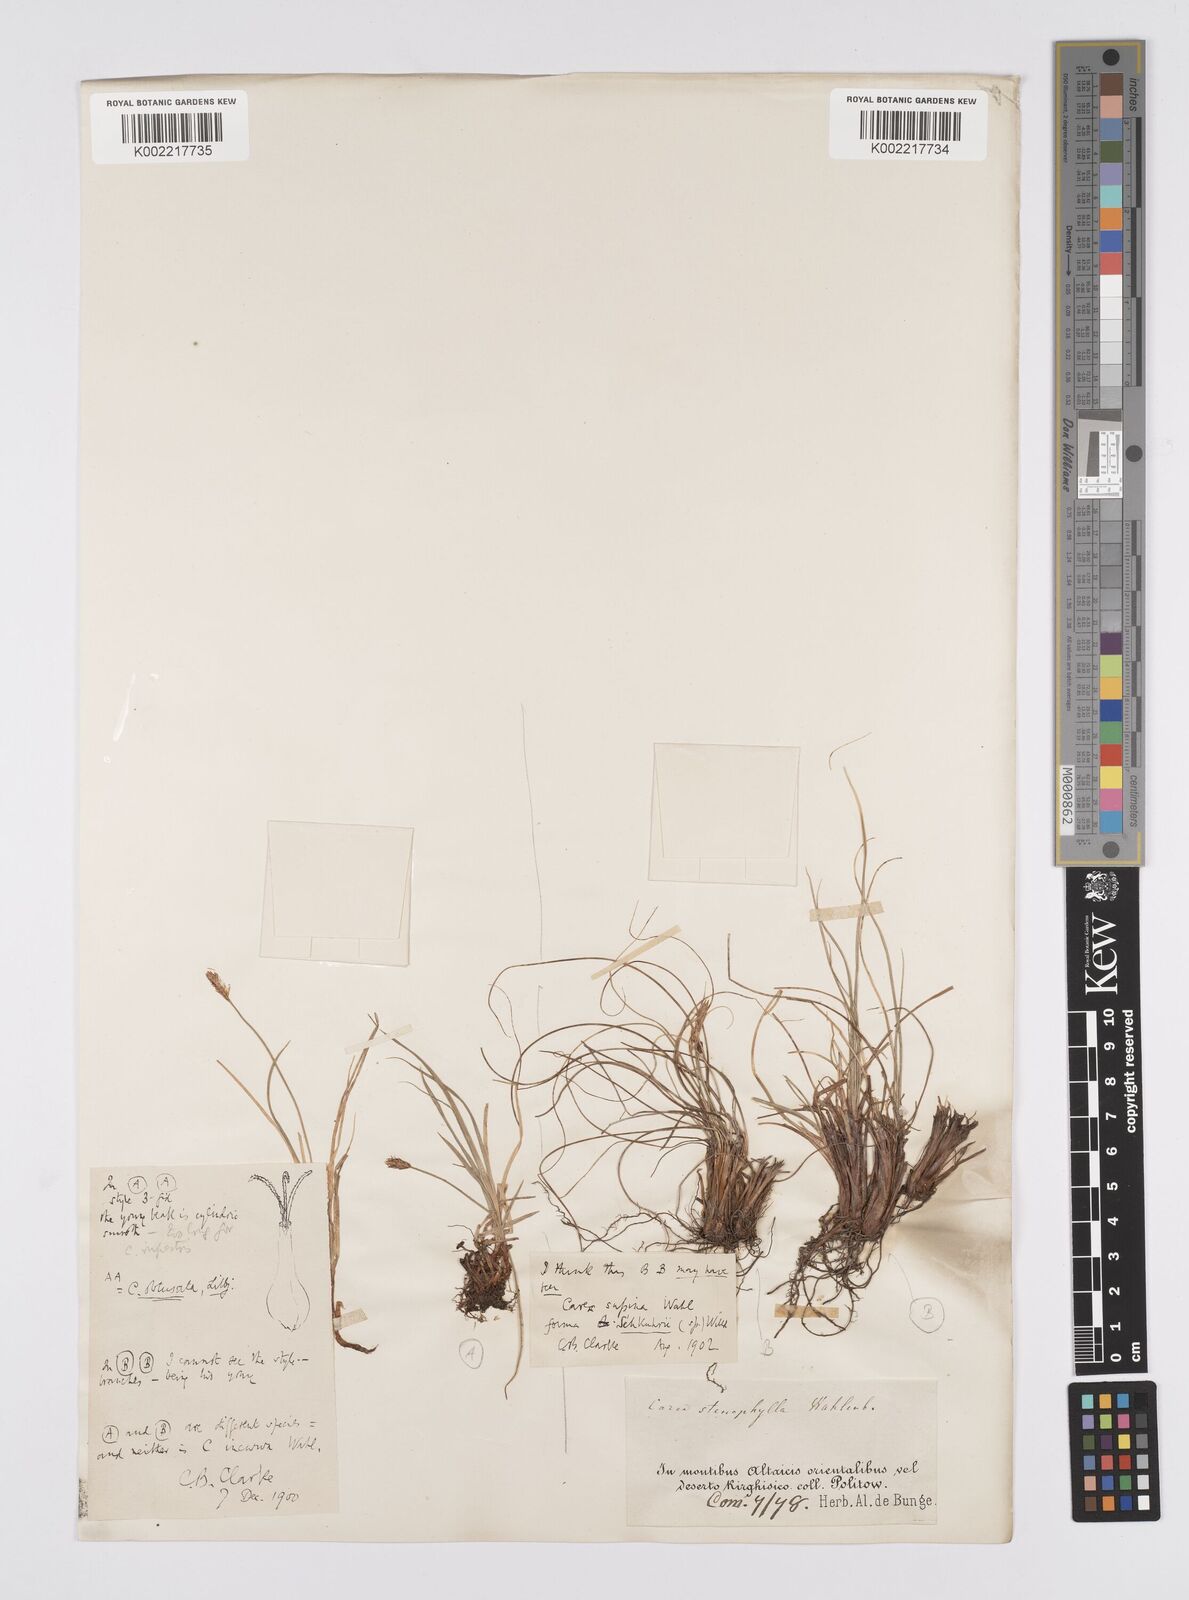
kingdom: Plantae
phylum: Tracheophyta
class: Liliopsida
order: Poales
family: Cyperaceae
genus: Carex
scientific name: Carex obtusata
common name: Blunt sedge
